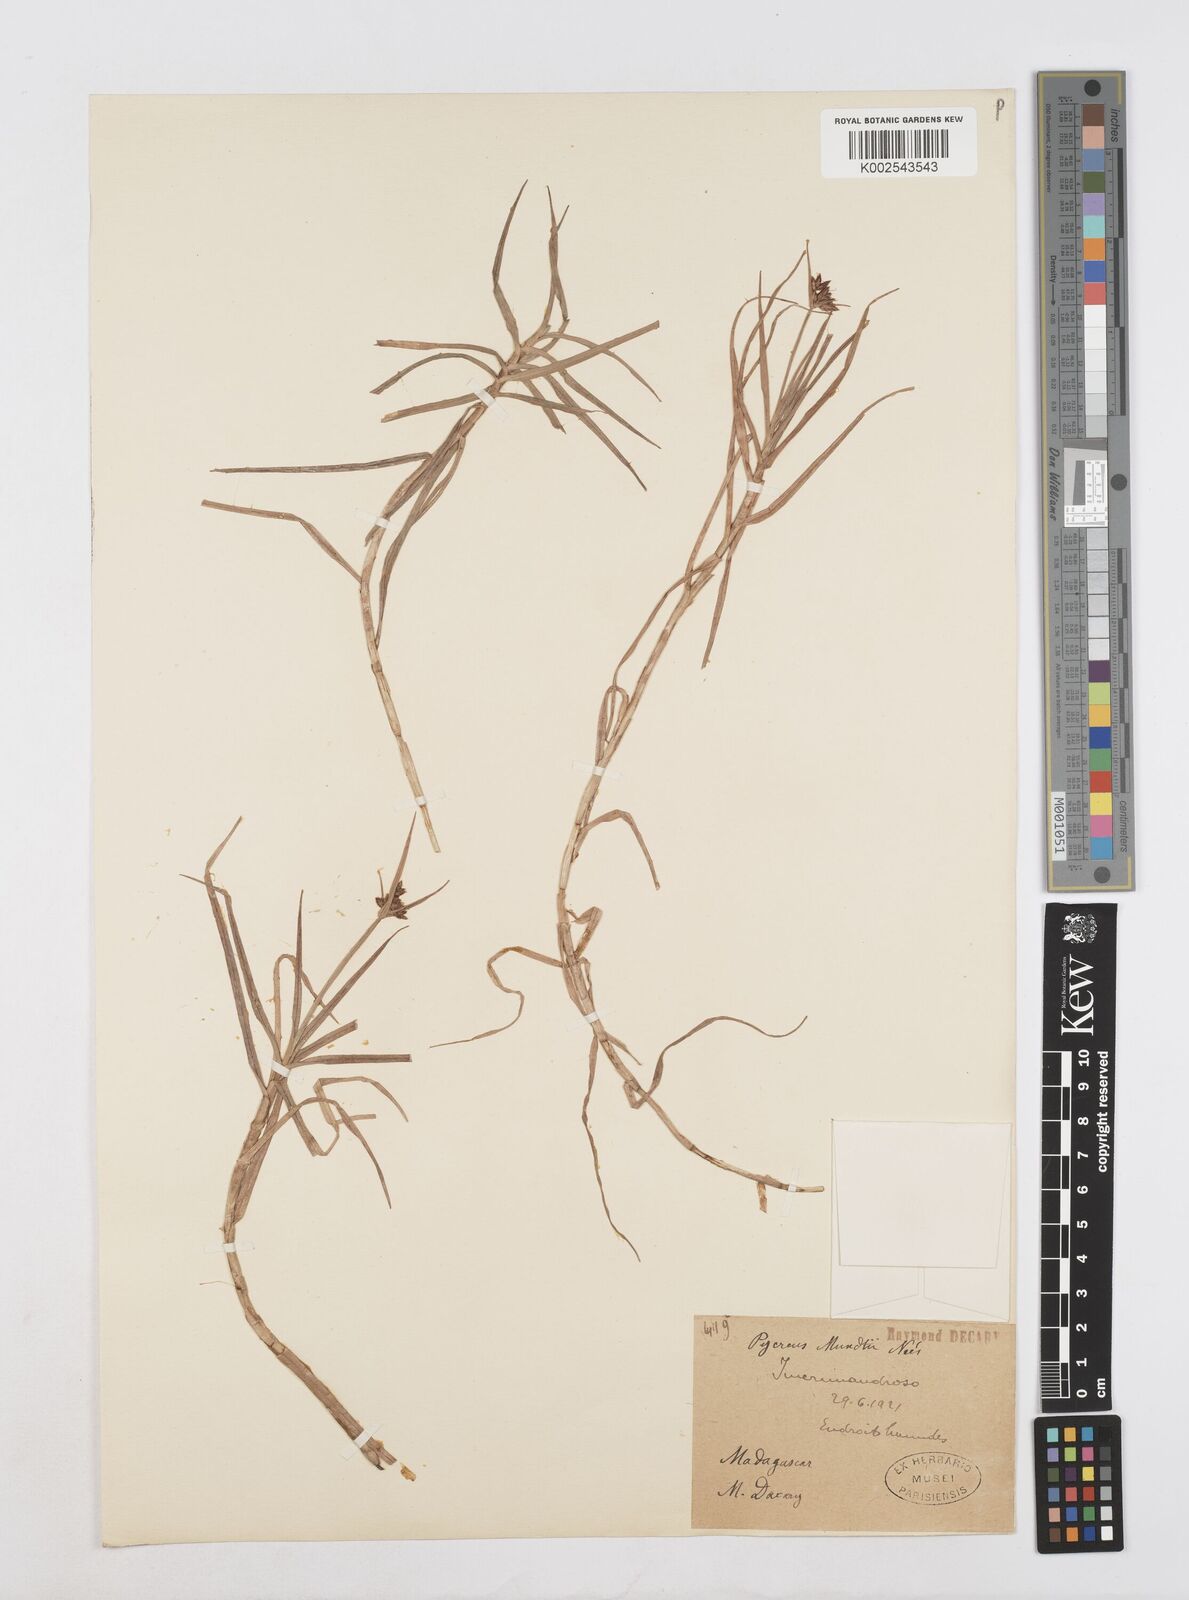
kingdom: Plantae
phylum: Tracheophyta
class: Liliopsida
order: Poales
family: Cyperaceae
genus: Cyperus
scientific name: Cyperus mundii
